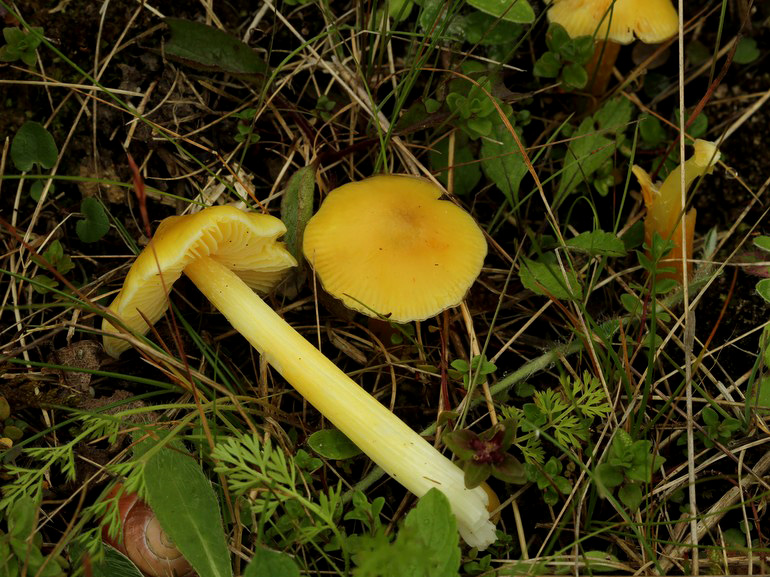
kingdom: Fungi
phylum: Basidiomycota
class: Agaricomycetes
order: Agaricales
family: Hygrophoraceae
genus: Hygrocybe
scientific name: Hygrocybe acutoconica
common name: Konrads vokshat
